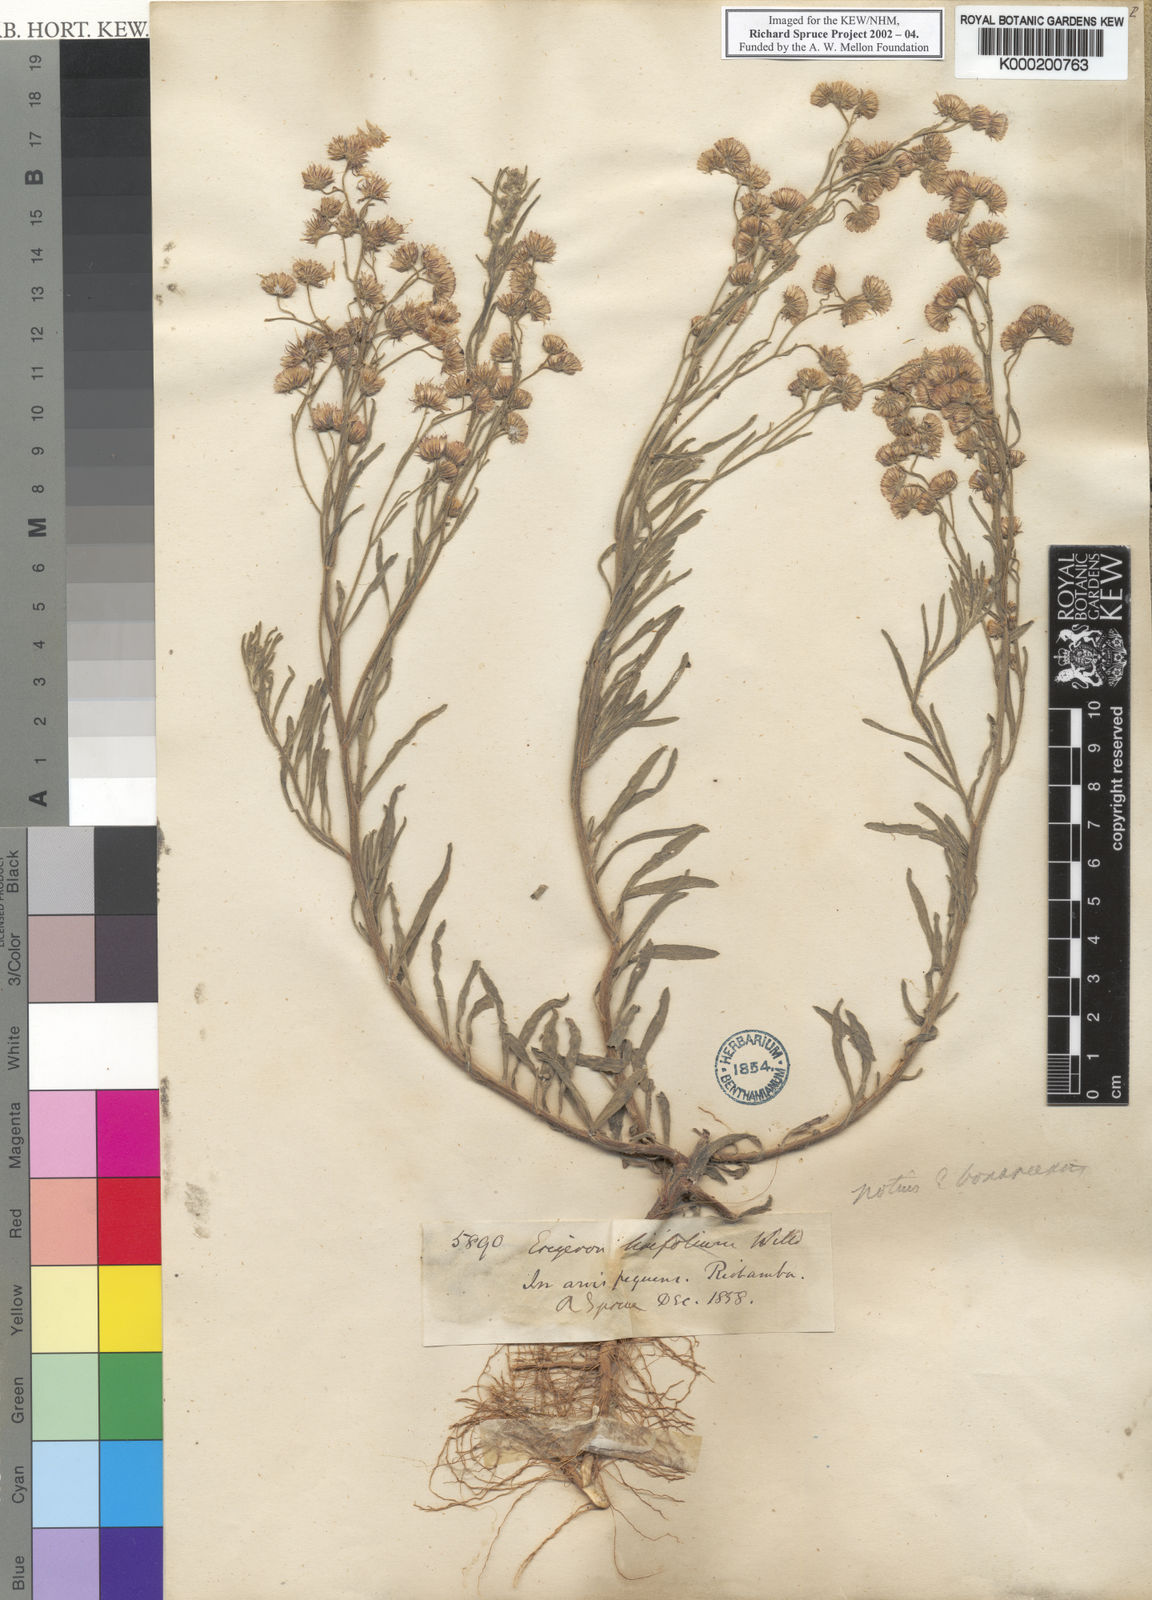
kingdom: Plantae
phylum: Tracheophyta
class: Magnoliopsida
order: Asterales
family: Asteraceae
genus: Erigeron
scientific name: Erigeron
